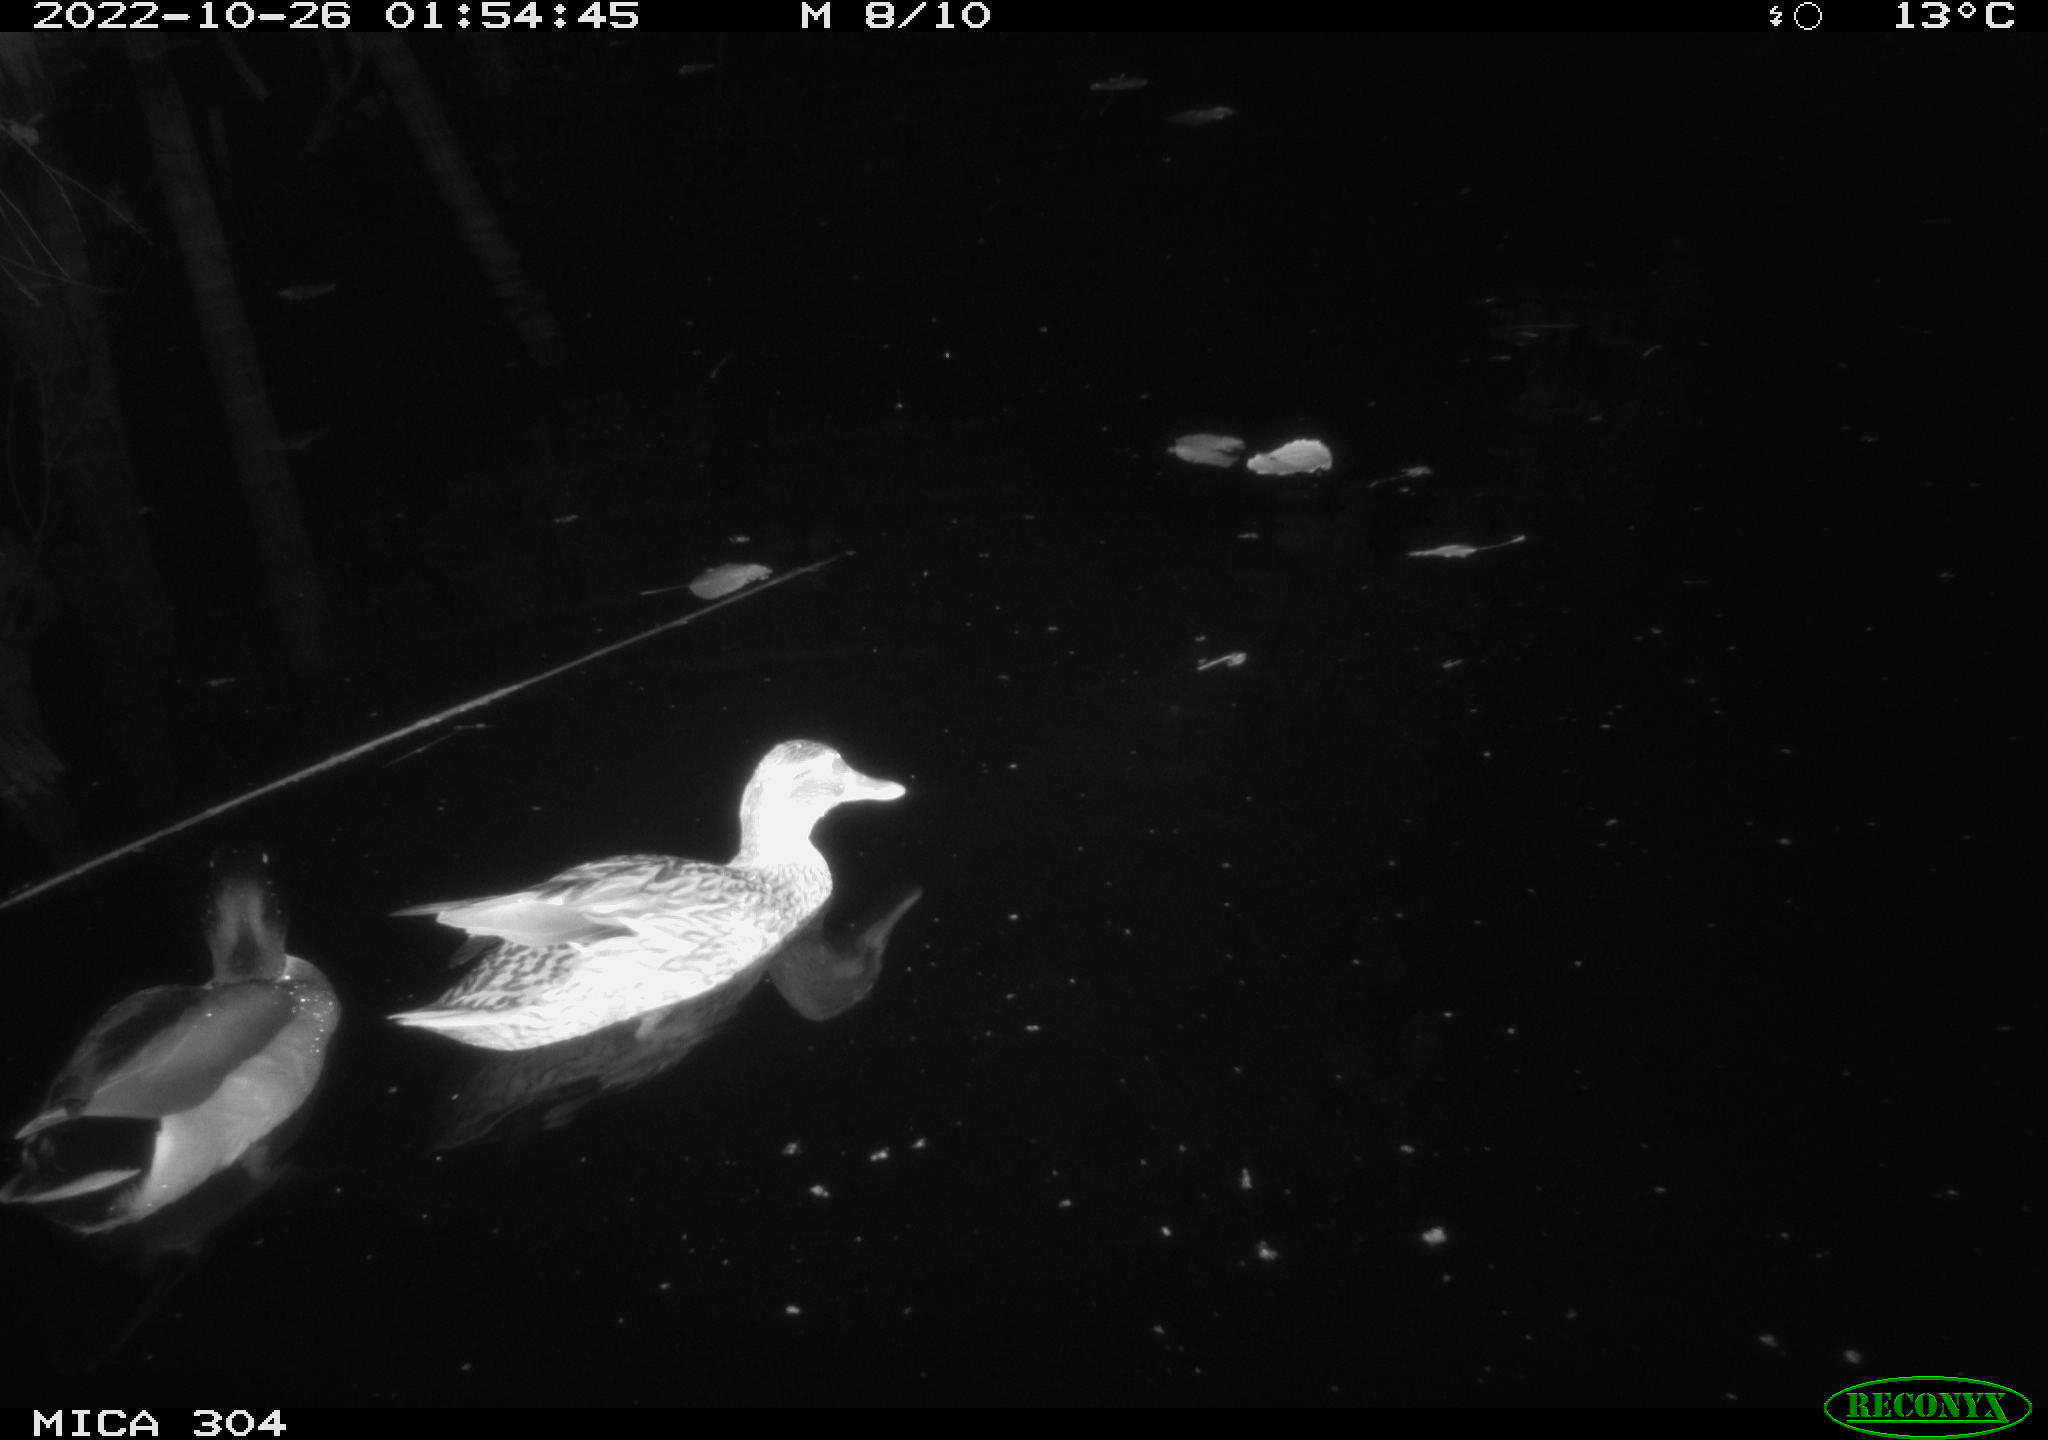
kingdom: Animalia
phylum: Chordata
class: Aves
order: Anseriformes
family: Anatidae
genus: Anas
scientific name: Anas
